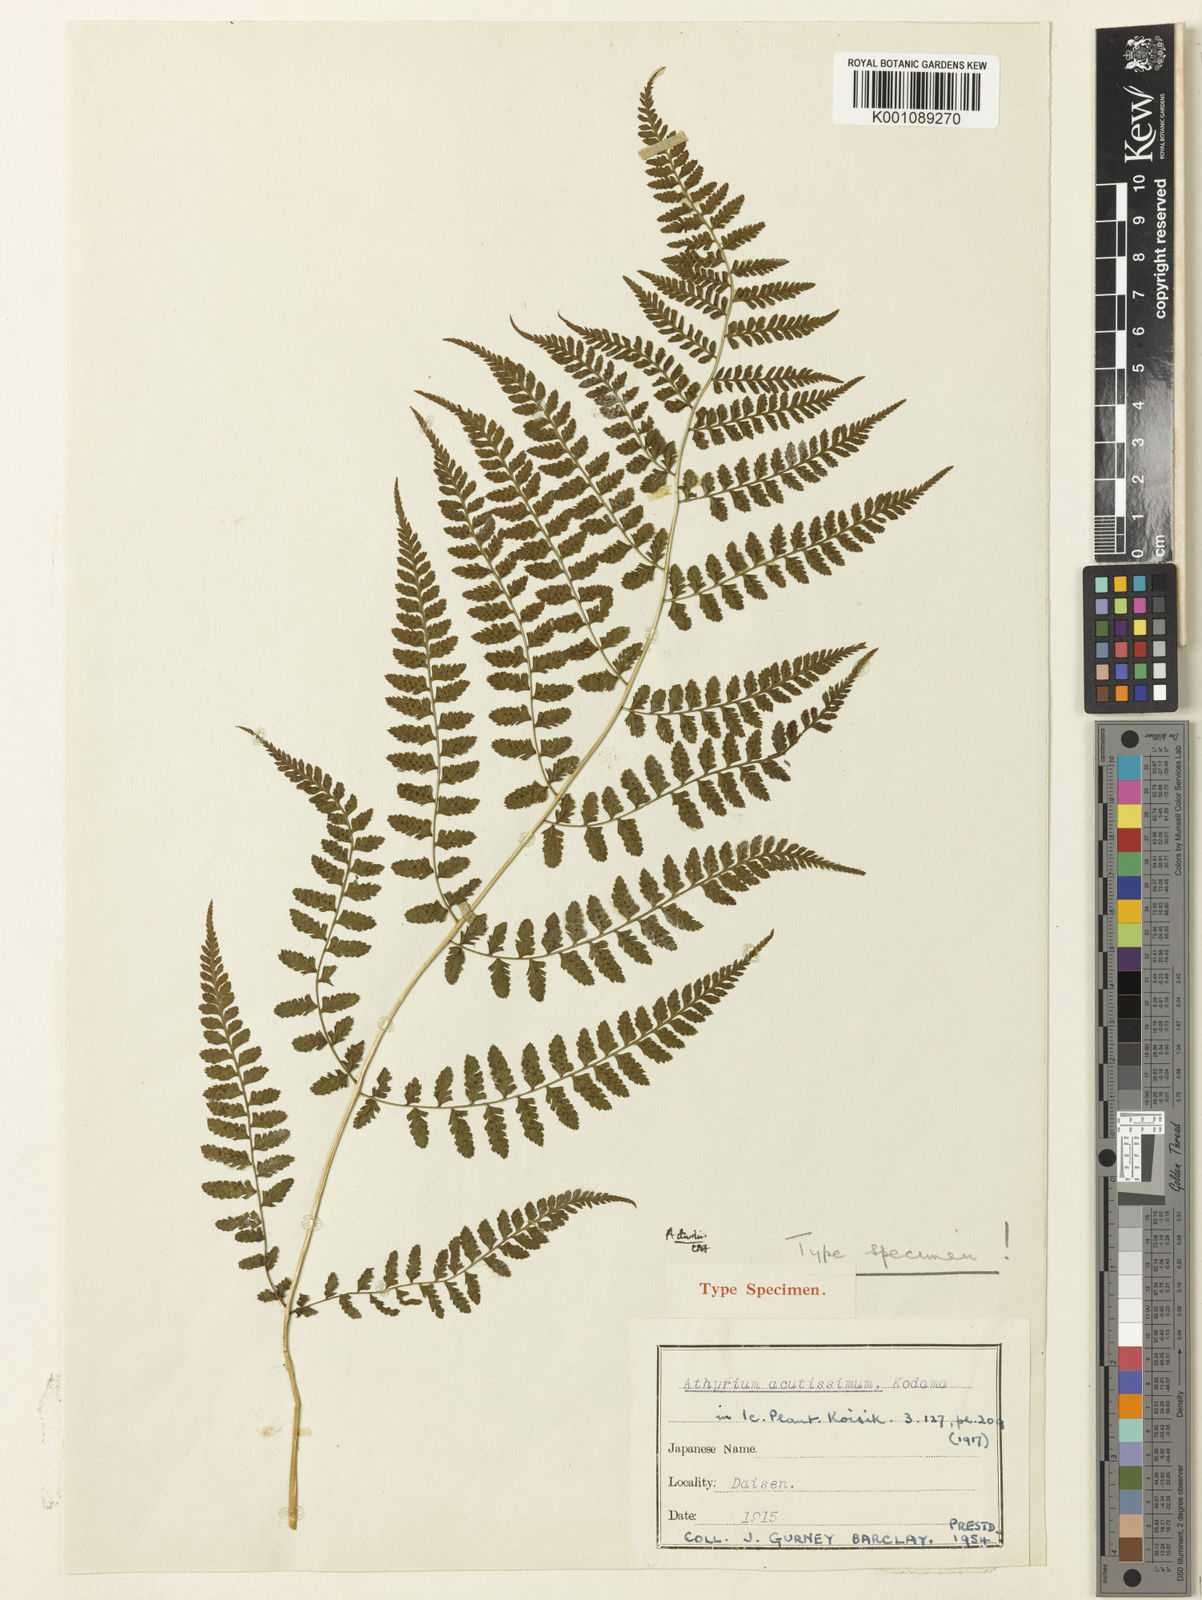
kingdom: Plantae
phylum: Tracheophyta
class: Polypodiopsida
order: Polypodiales
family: Athyriaceae
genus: Athyrium
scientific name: Athyrium multifidum
